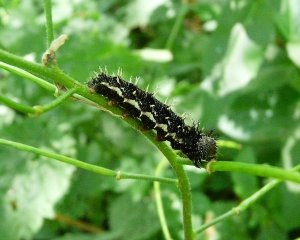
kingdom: Animalia
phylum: Arthropoda
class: Insecta
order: Lepidoptera
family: Nymphalidae
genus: Vanessa
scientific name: Vanessa atalanta
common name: Red Admiral
